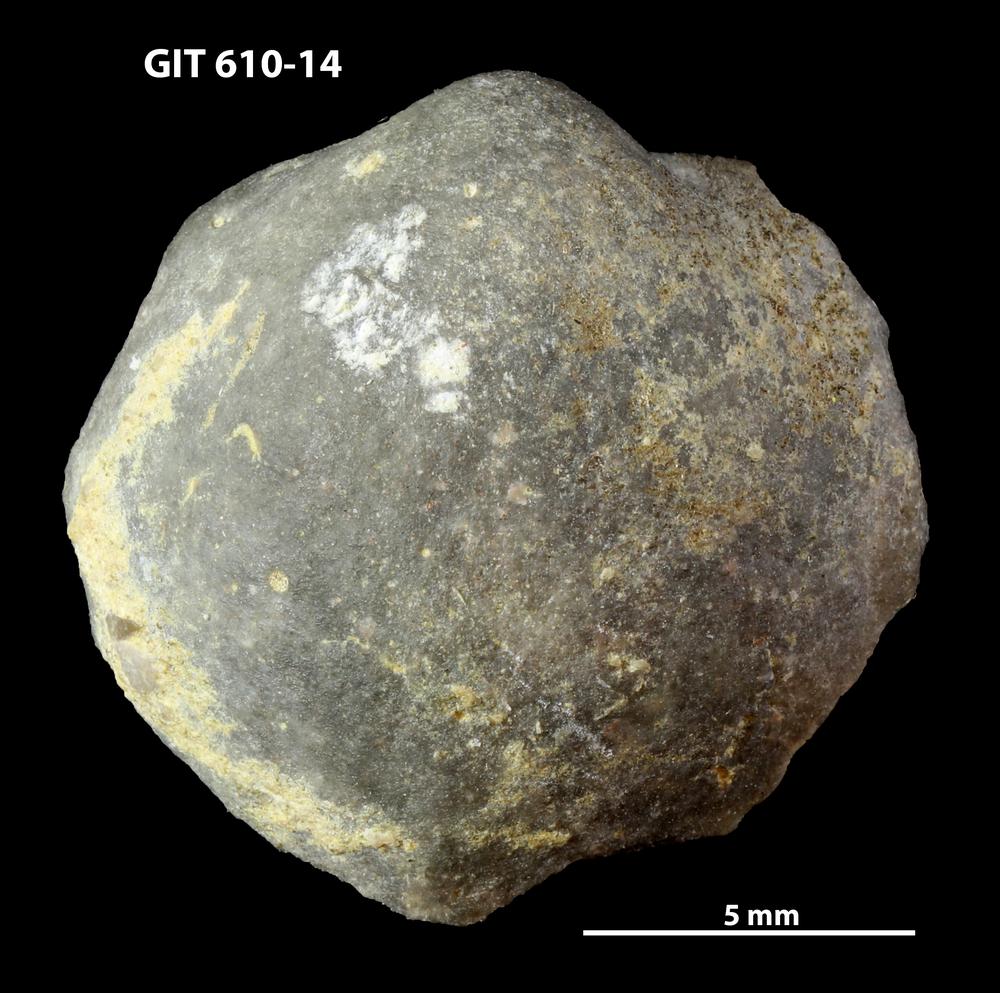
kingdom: Animalia
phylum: Brachiopoda
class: Rhynchonellata
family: Triplesiidae
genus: Triplesia
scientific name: Triplesia insularis
